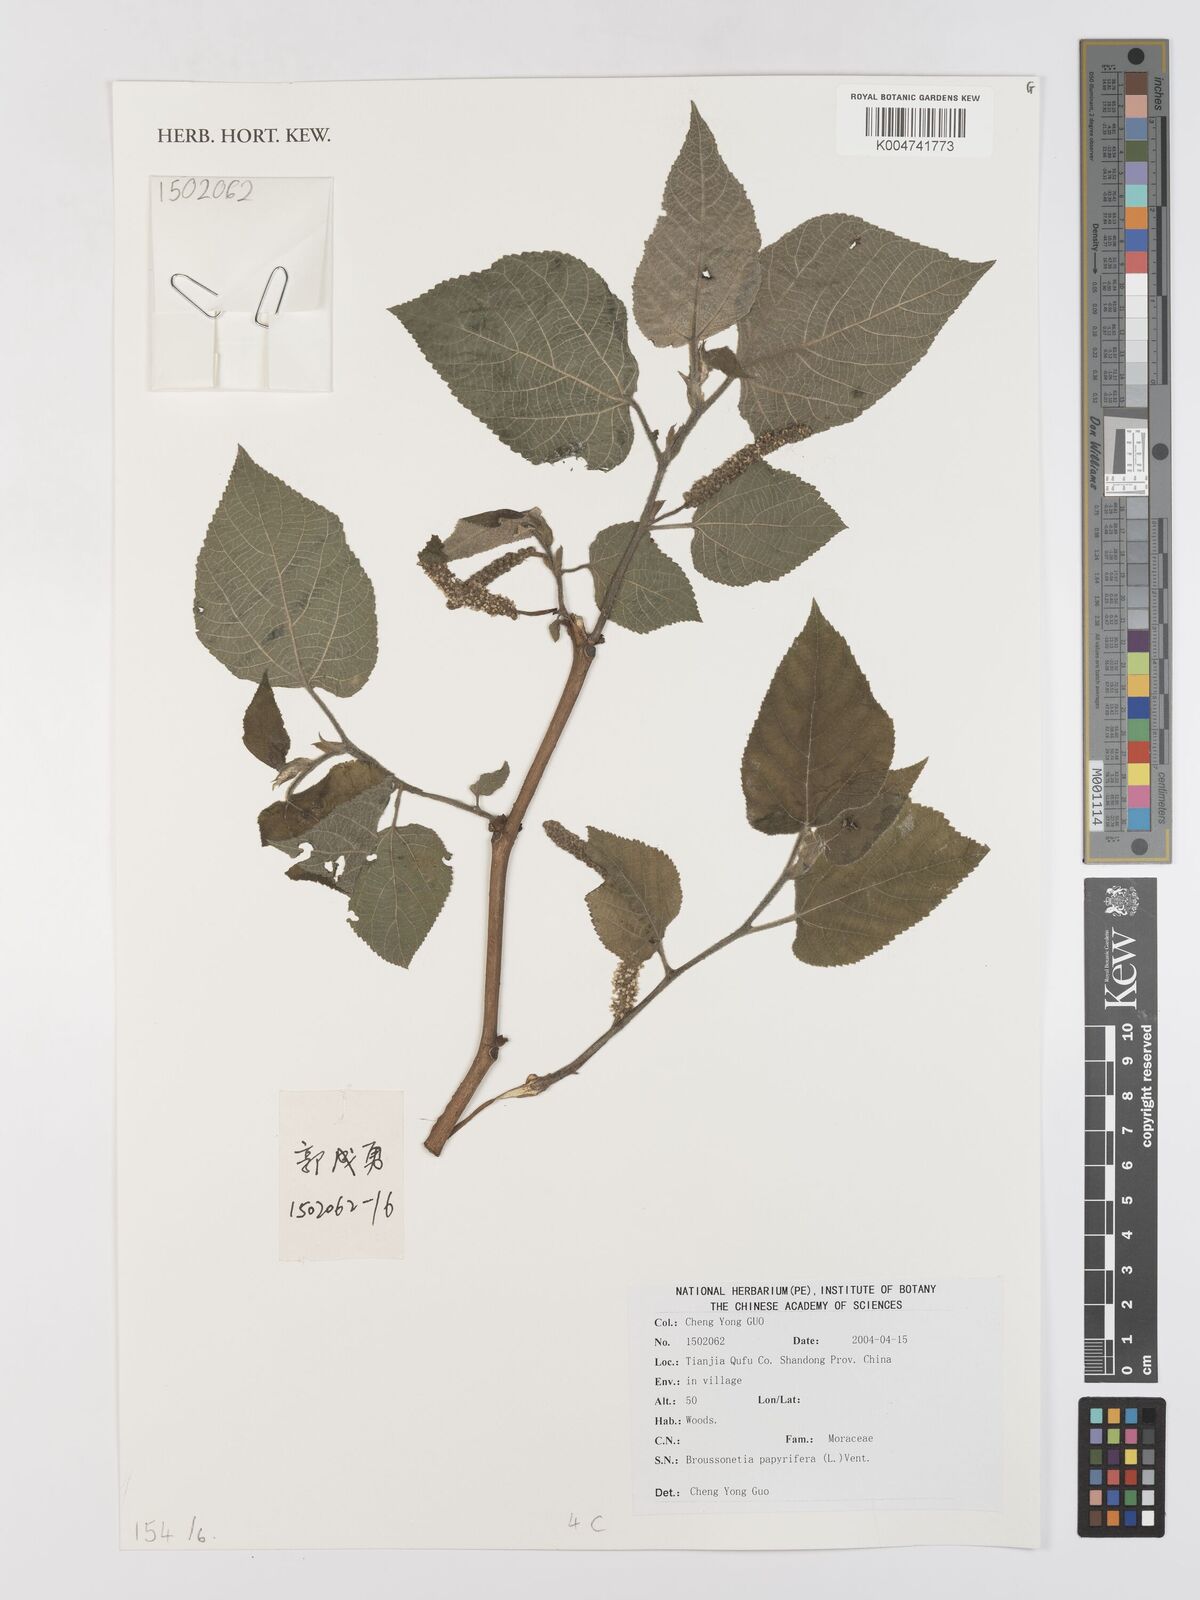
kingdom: Plantae
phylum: Tracheophyta
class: Magnoliopsida
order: Rosales
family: Moraceae
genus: Broussonetia
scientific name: Broussonetia papyrifera
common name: Paper mulberry
